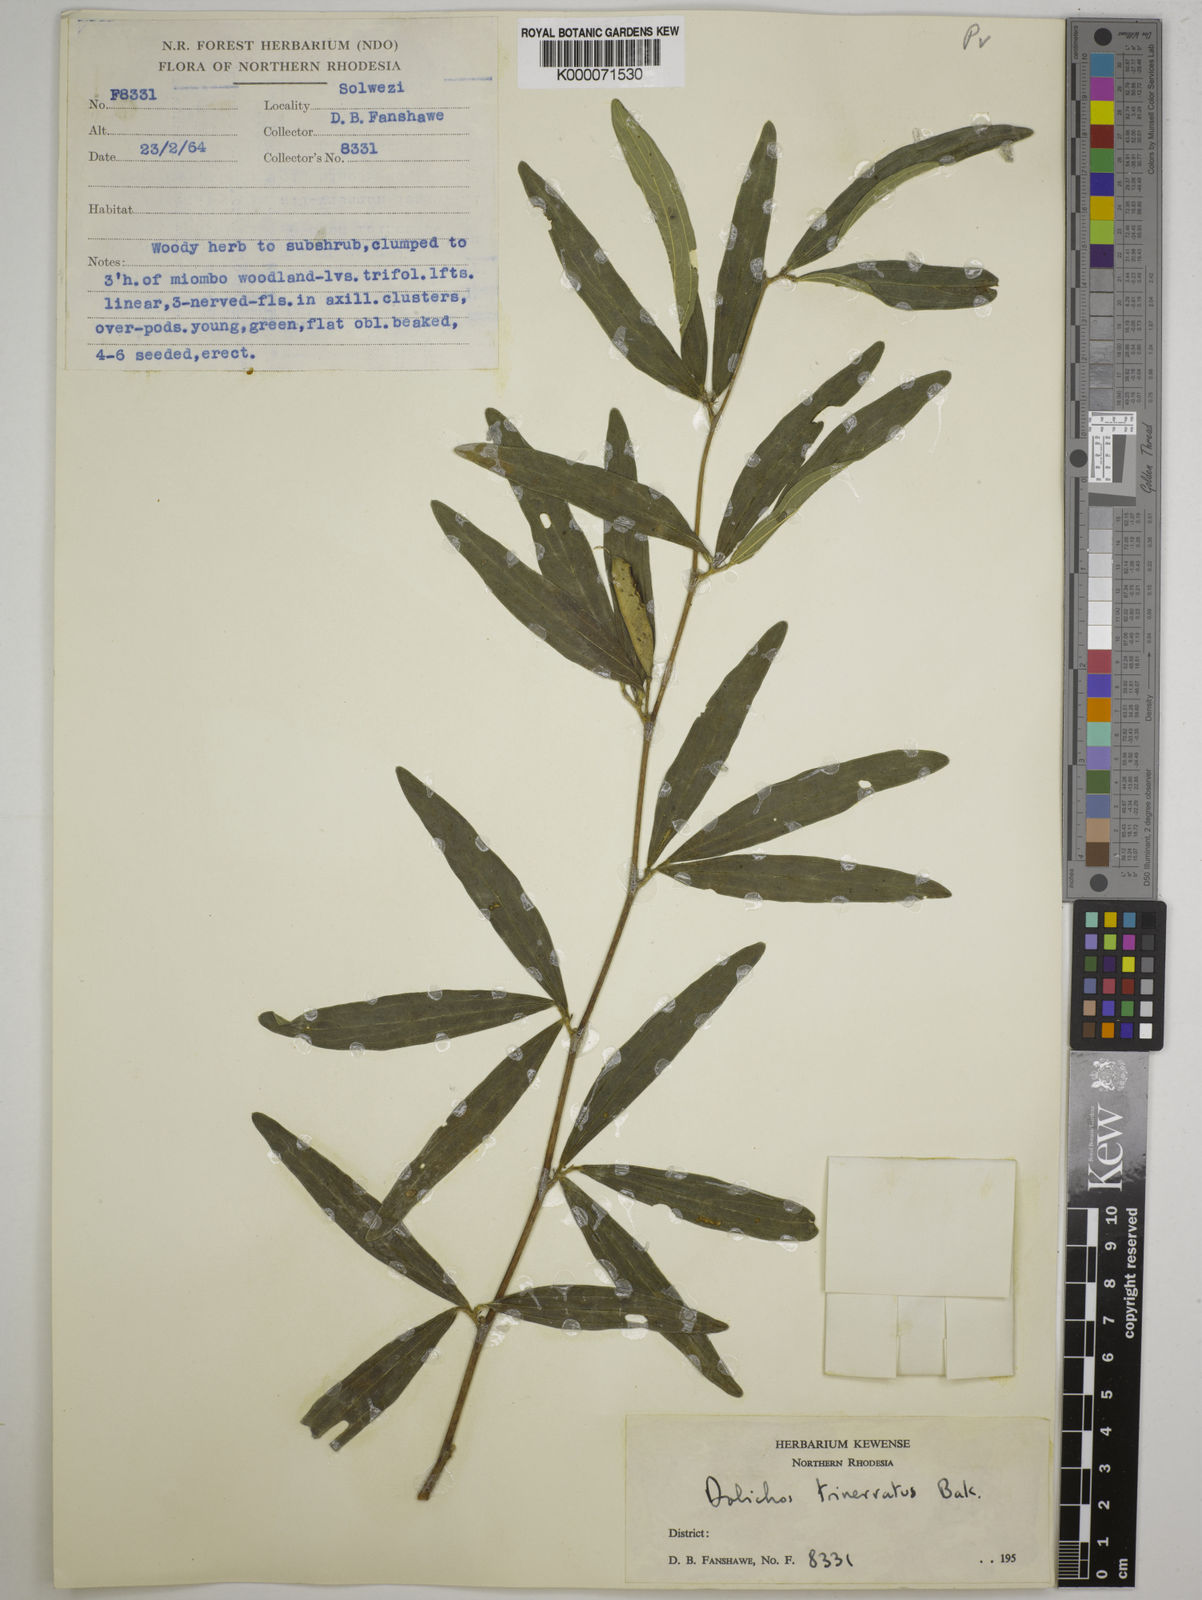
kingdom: Plantae
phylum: Tracheophyta
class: Magnoliopsida
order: Fabales
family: Fabaceae
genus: Dolichos
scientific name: Dolichos trinervatus
